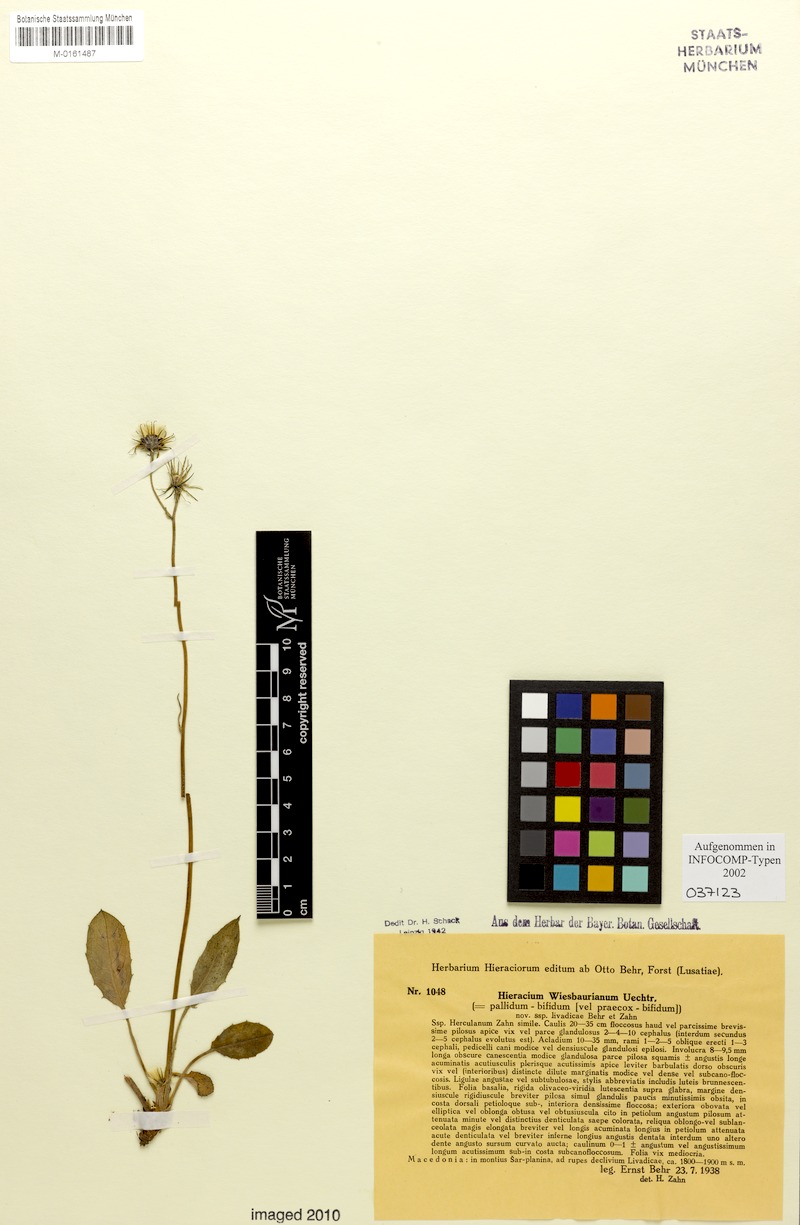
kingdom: Plantae
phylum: Tracheophyta
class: Magnoliopsida
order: Asterales
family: Asteraceae
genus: Hieracium
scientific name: Hieracium hypochoeroides
